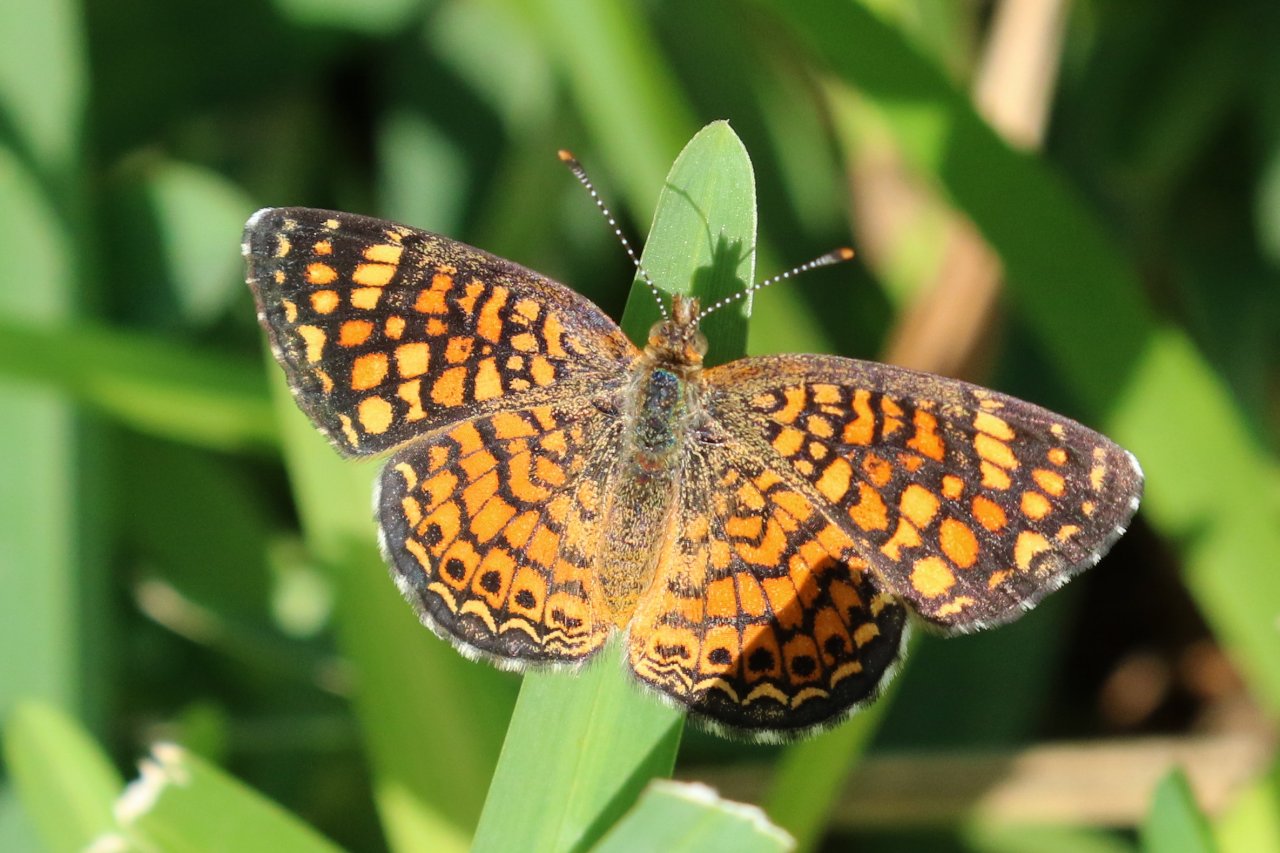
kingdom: Animalia
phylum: Arthropoda
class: Insecta
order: Lepidoptera
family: Nymphalidae
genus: Phyciodes
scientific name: Phyciodes vesta
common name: Vesta Crescent
